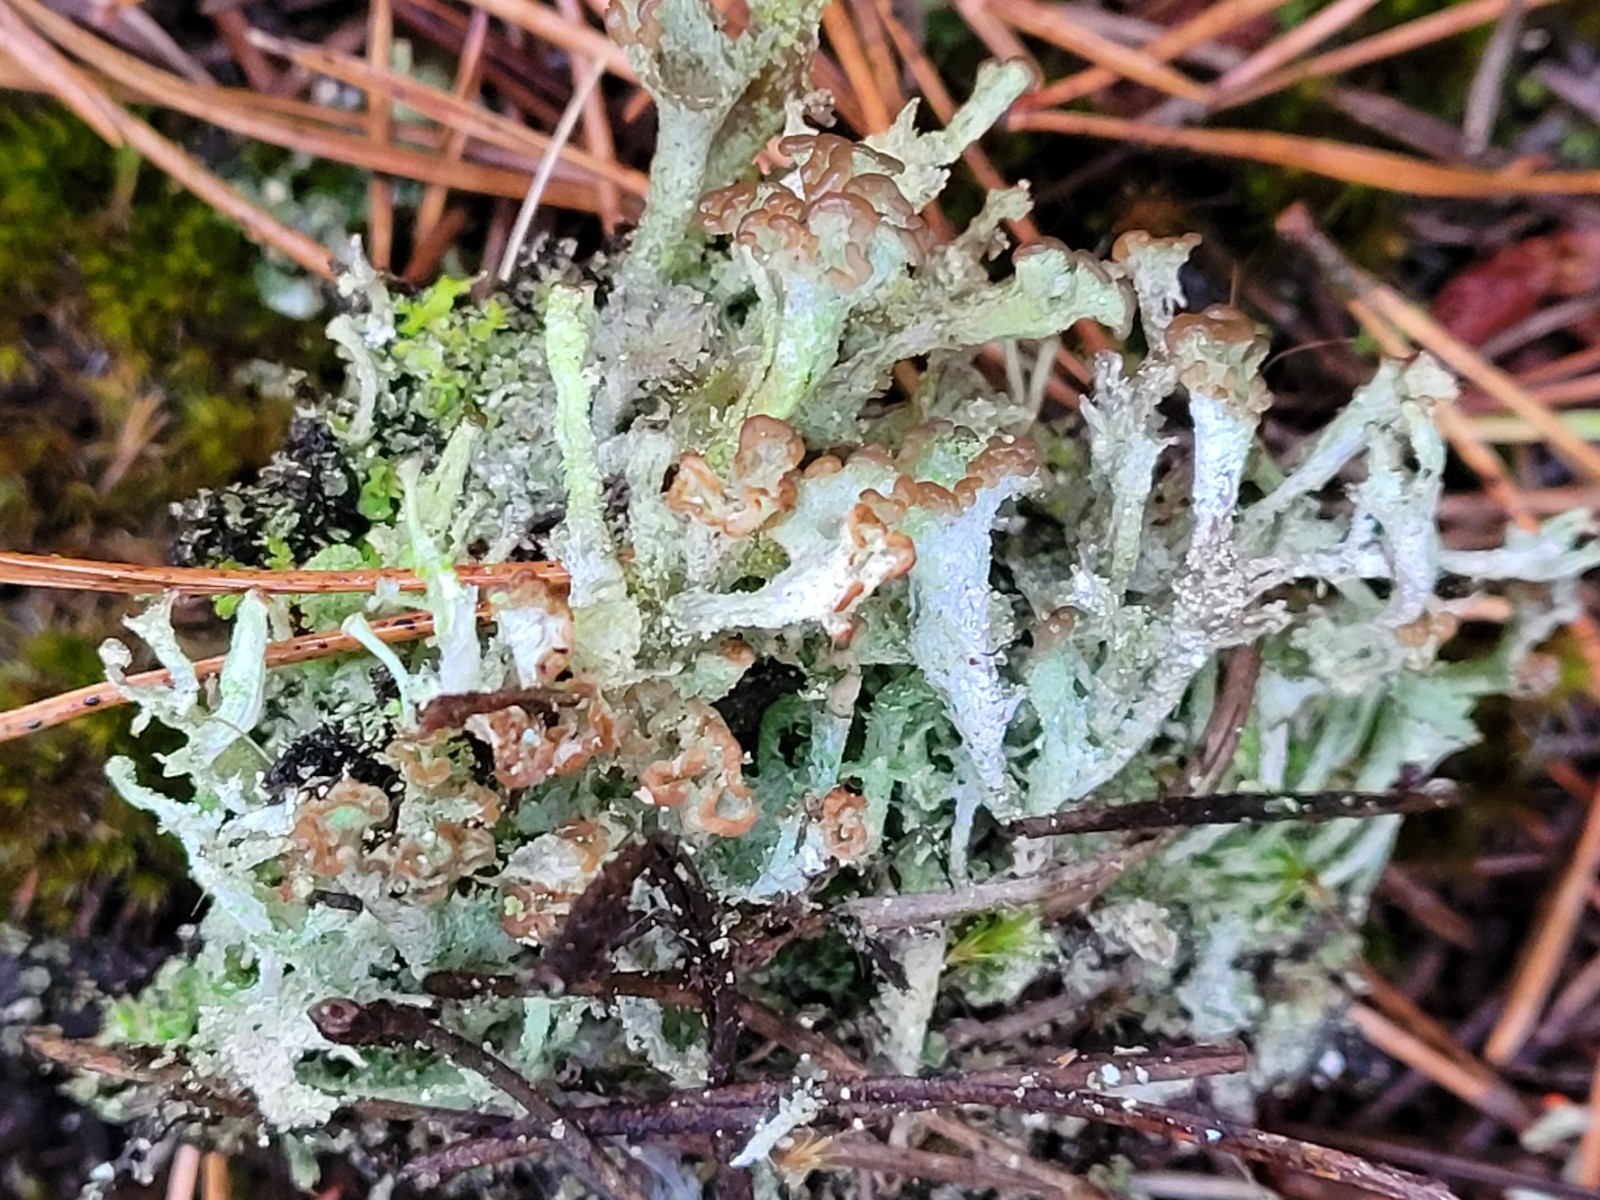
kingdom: Fungi
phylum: Ascomycota
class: Lecanoromycetes
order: Lecanorales
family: Cladoniaceae
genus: Cladonia
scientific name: Cladonia ramulosa
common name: kliddet bægerlav
